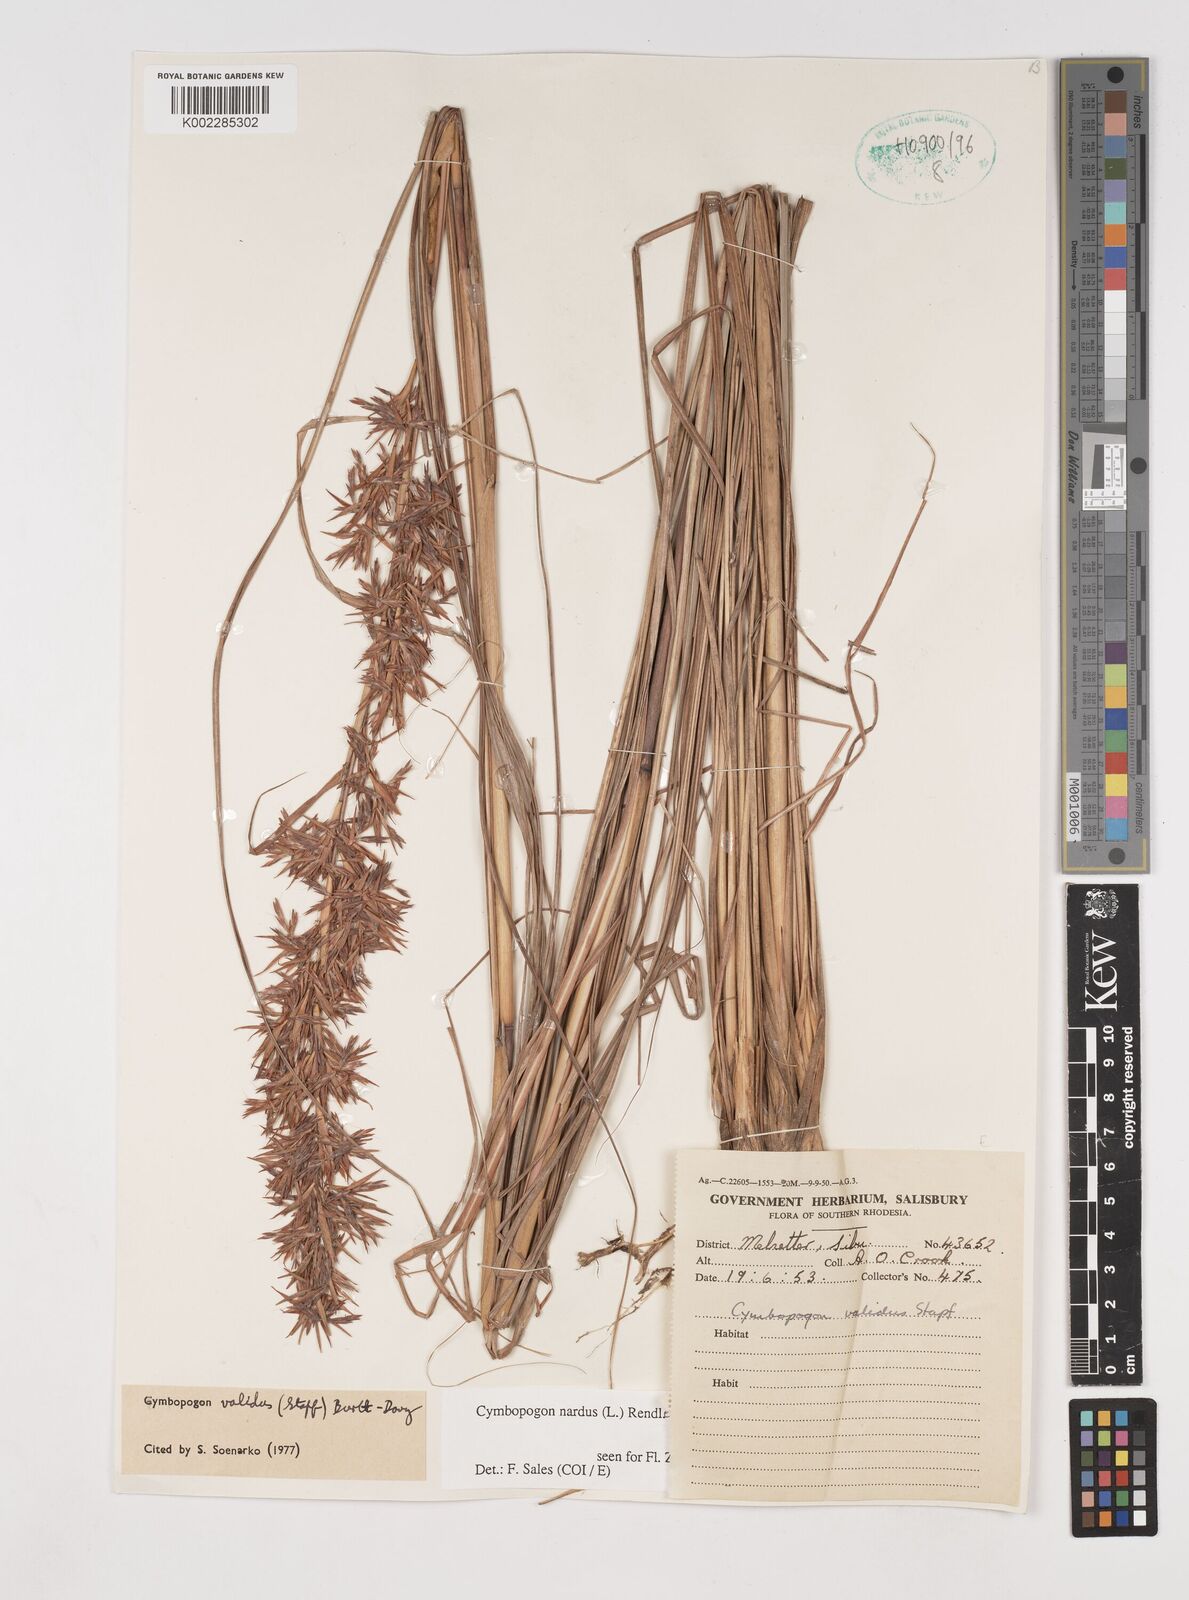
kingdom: Plantae
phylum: Tracheophyta
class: Liliopsida
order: Poales
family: Poaceae
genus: Cymbopogon
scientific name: Cymbopogon nardus
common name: Giant turpentine grass
